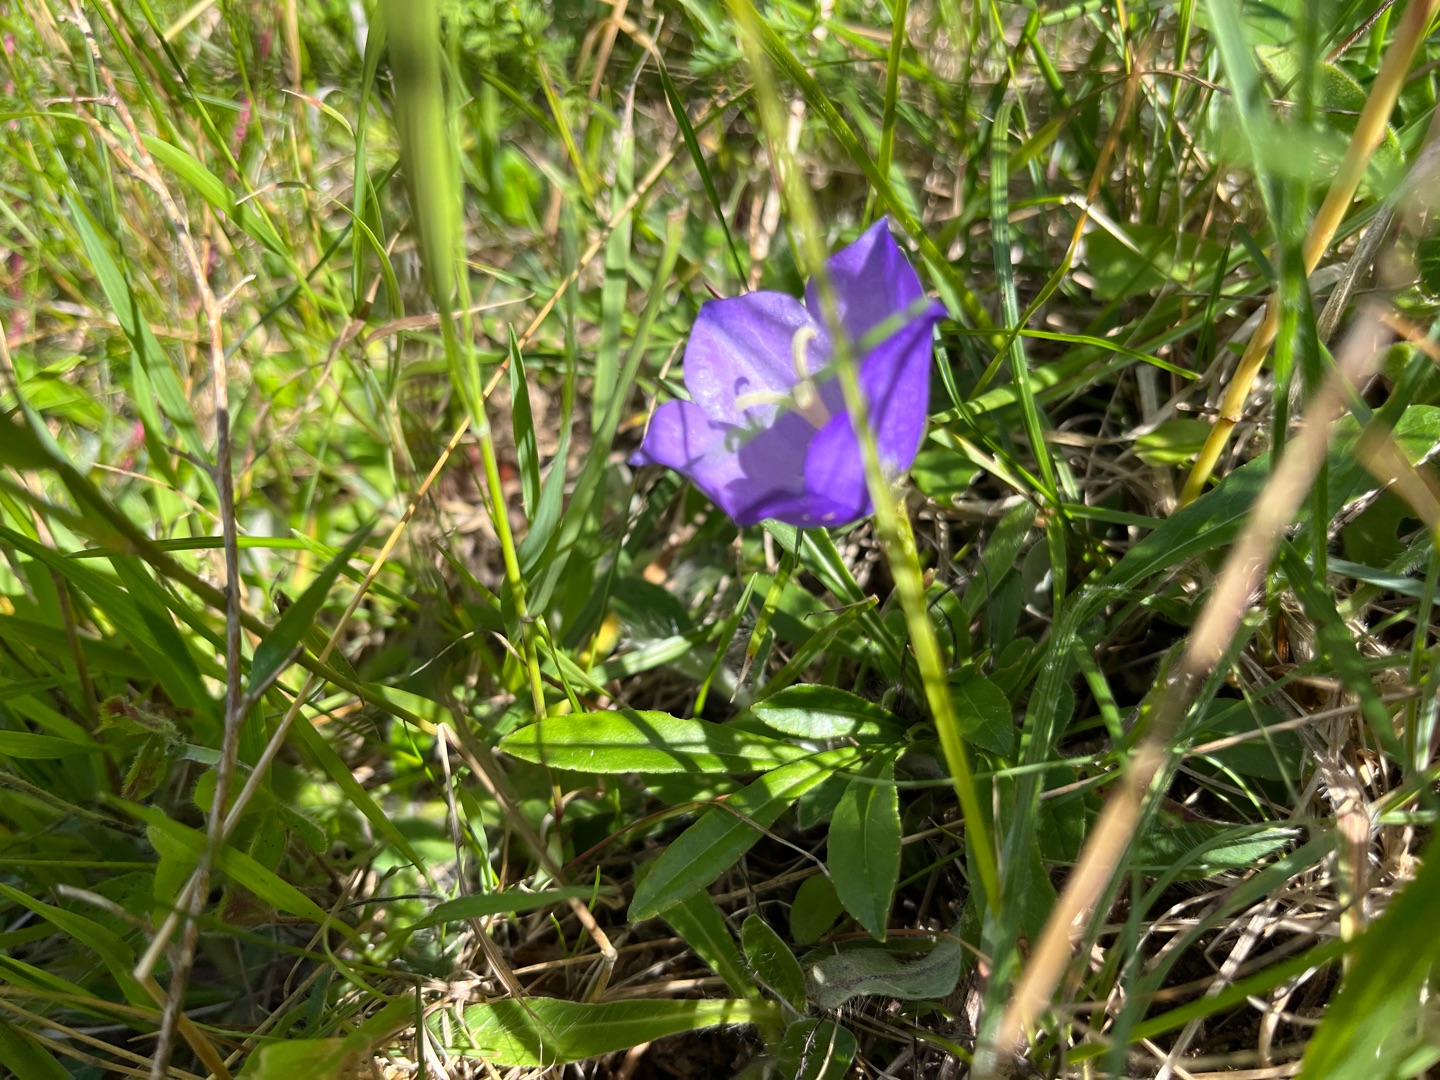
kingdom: Plantae
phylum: Tracheophyta
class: Magnoliopsida
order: Asterales
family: Campanulaceae
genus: Campanula
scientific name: Campanula persicifolia
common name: Smalbladet klokke
